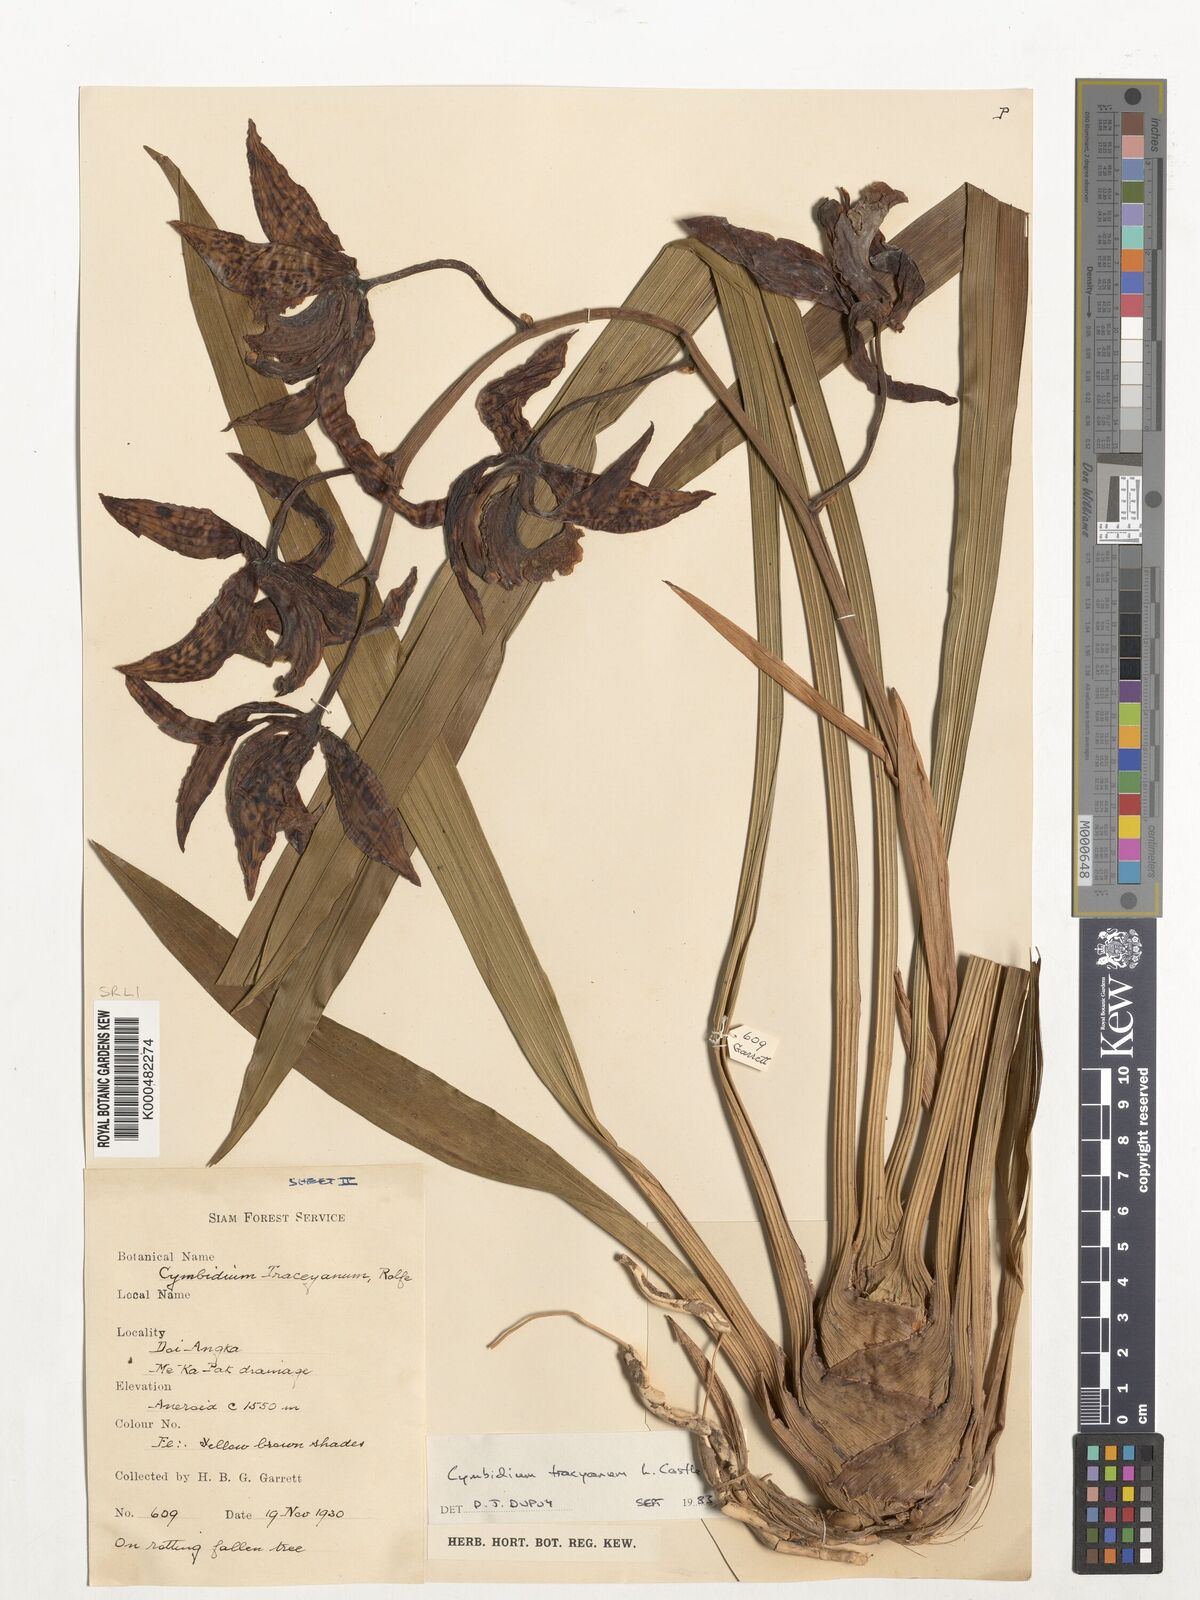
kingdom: Plantae
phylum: Tracheophyta
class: Liliopsida
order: Asparagales
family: Orchidaceae
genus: Cymbidium
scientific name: Cymbidium
